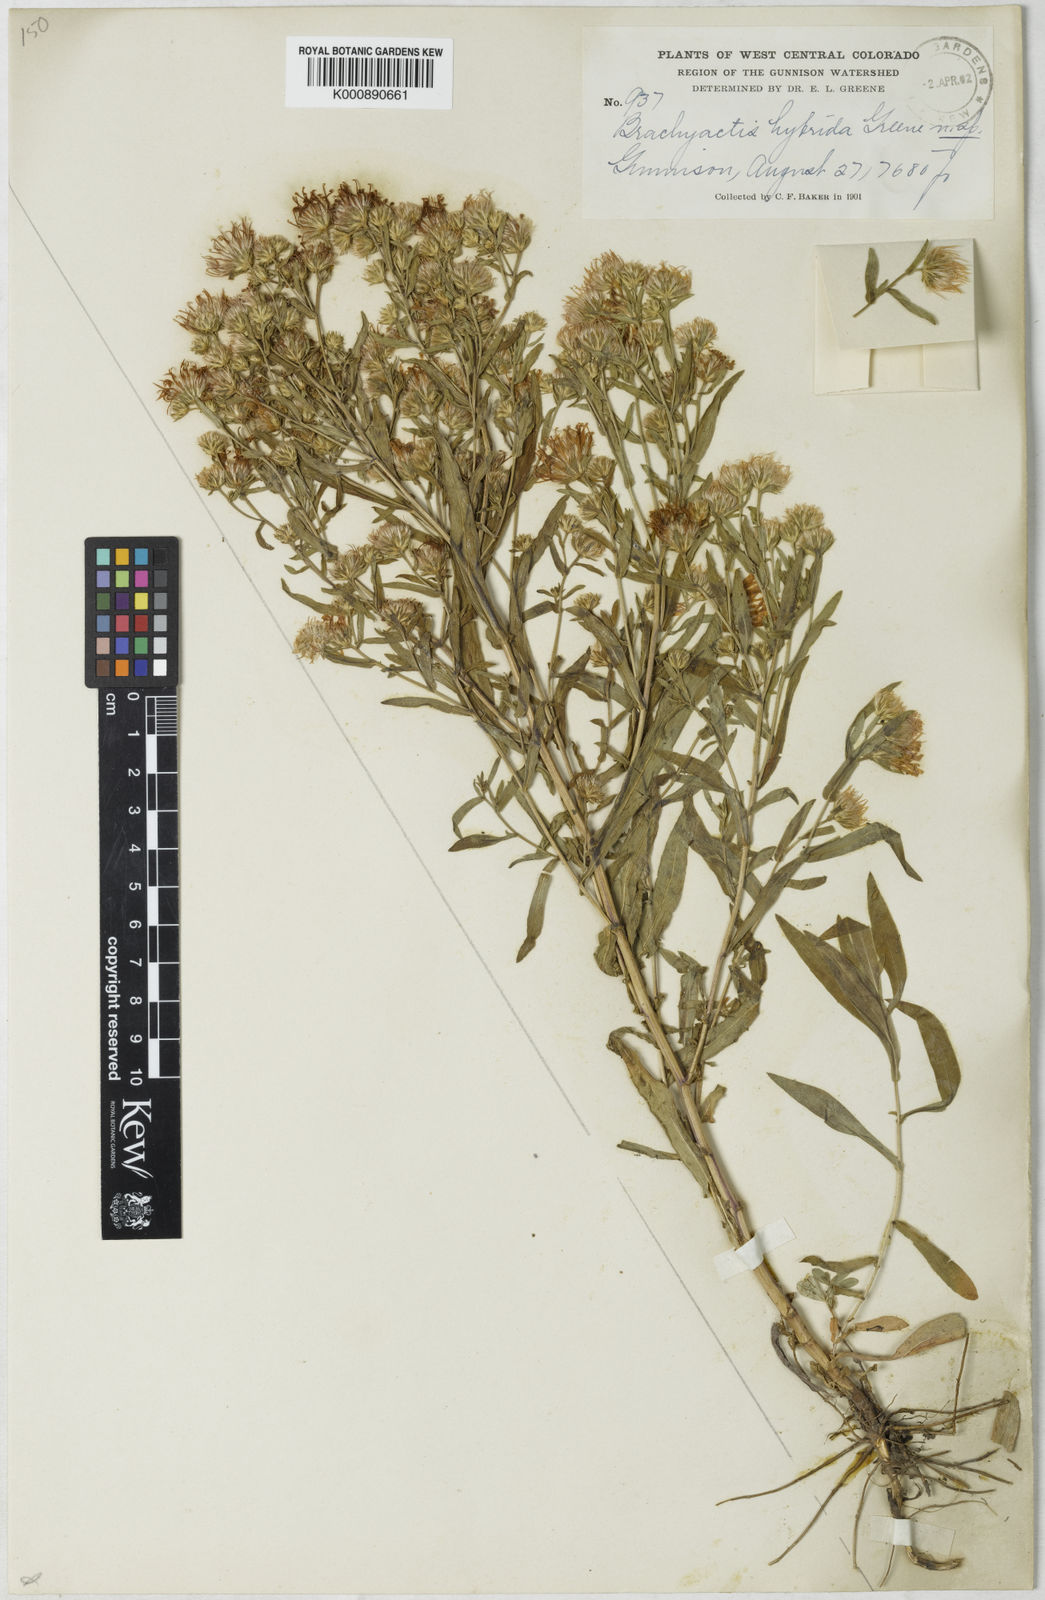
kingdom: Plantae
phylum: Tracheophyta
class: Magnoliopsida
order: Asterales
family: Asteraceae
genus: Aster
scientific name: Aster hybridus
